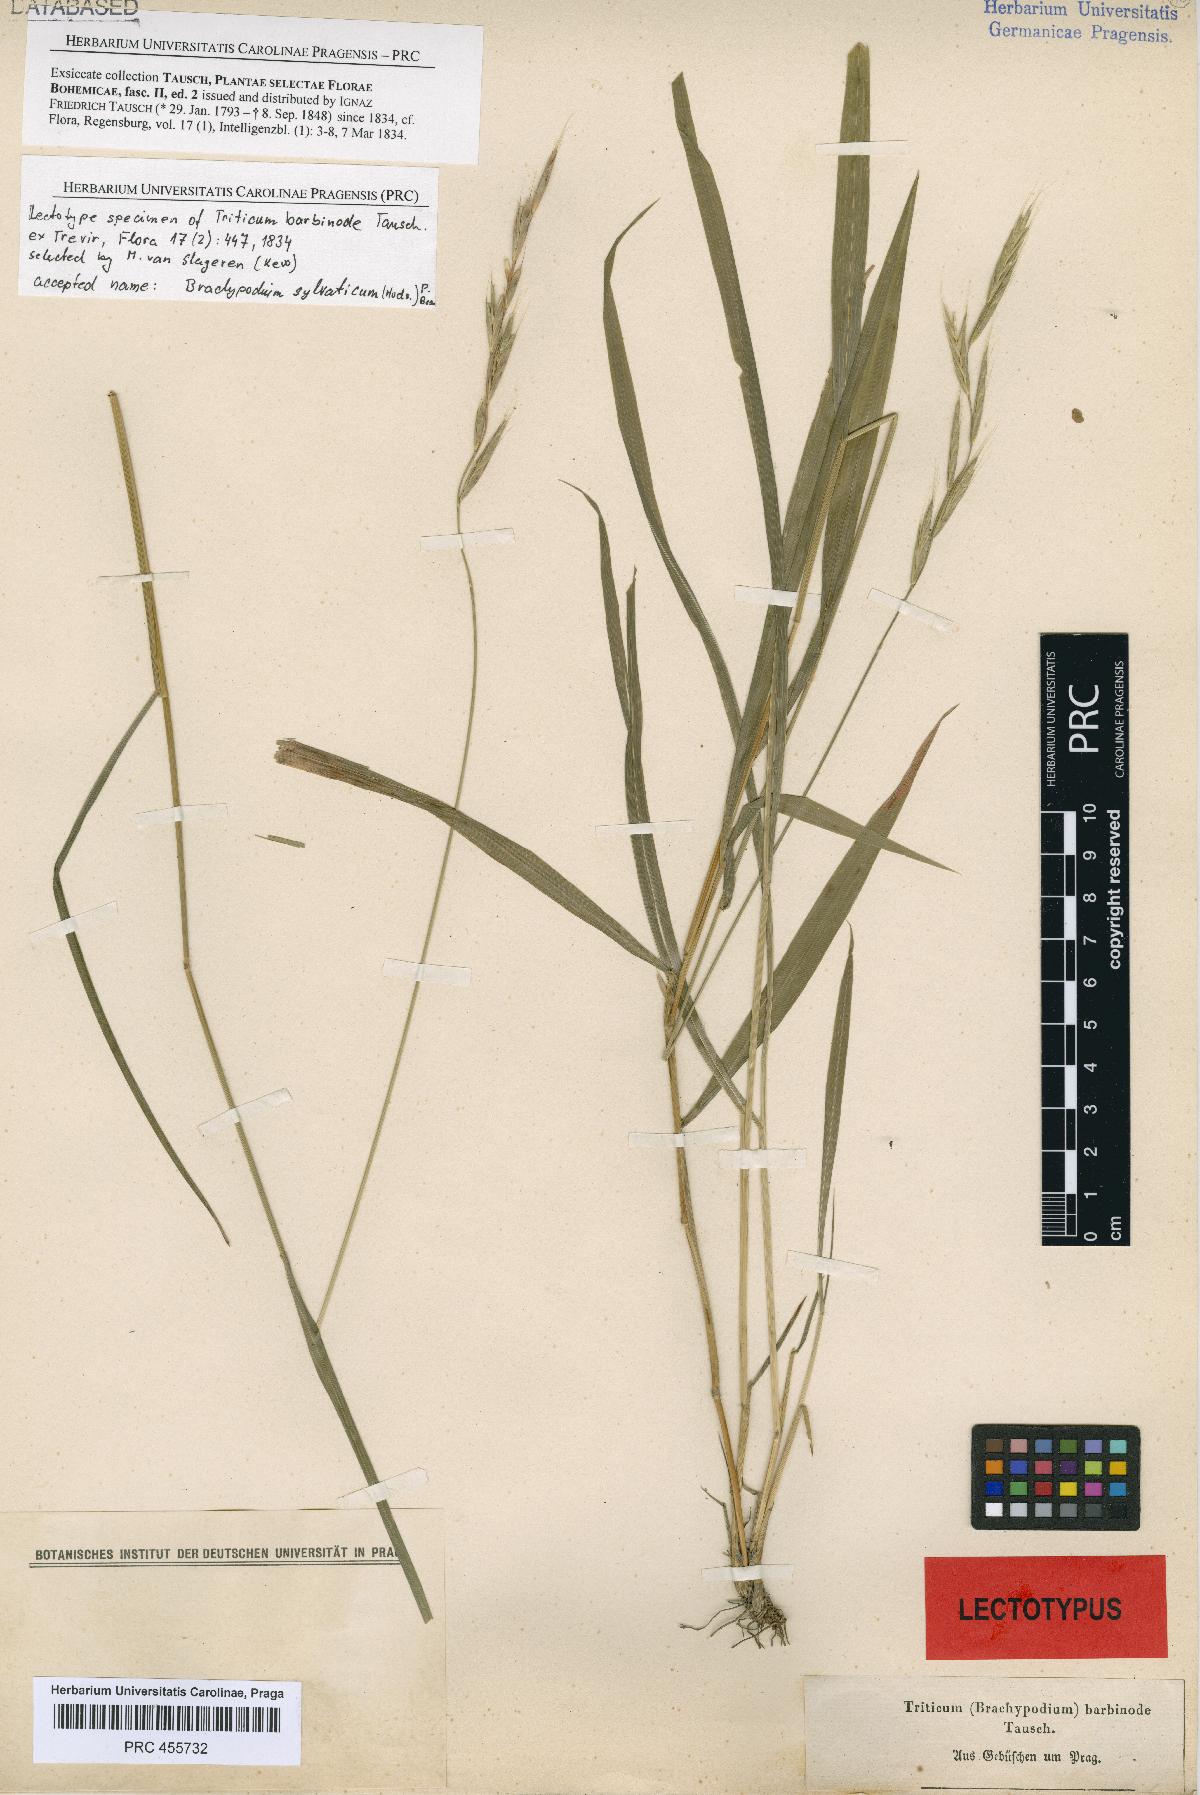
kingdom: Plantae
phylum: Tracheophyta
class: Liliopsida
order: Poales
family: Poaceae
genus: Brachypodium
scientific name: Brachypodium sylvaticum
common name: False-brome
